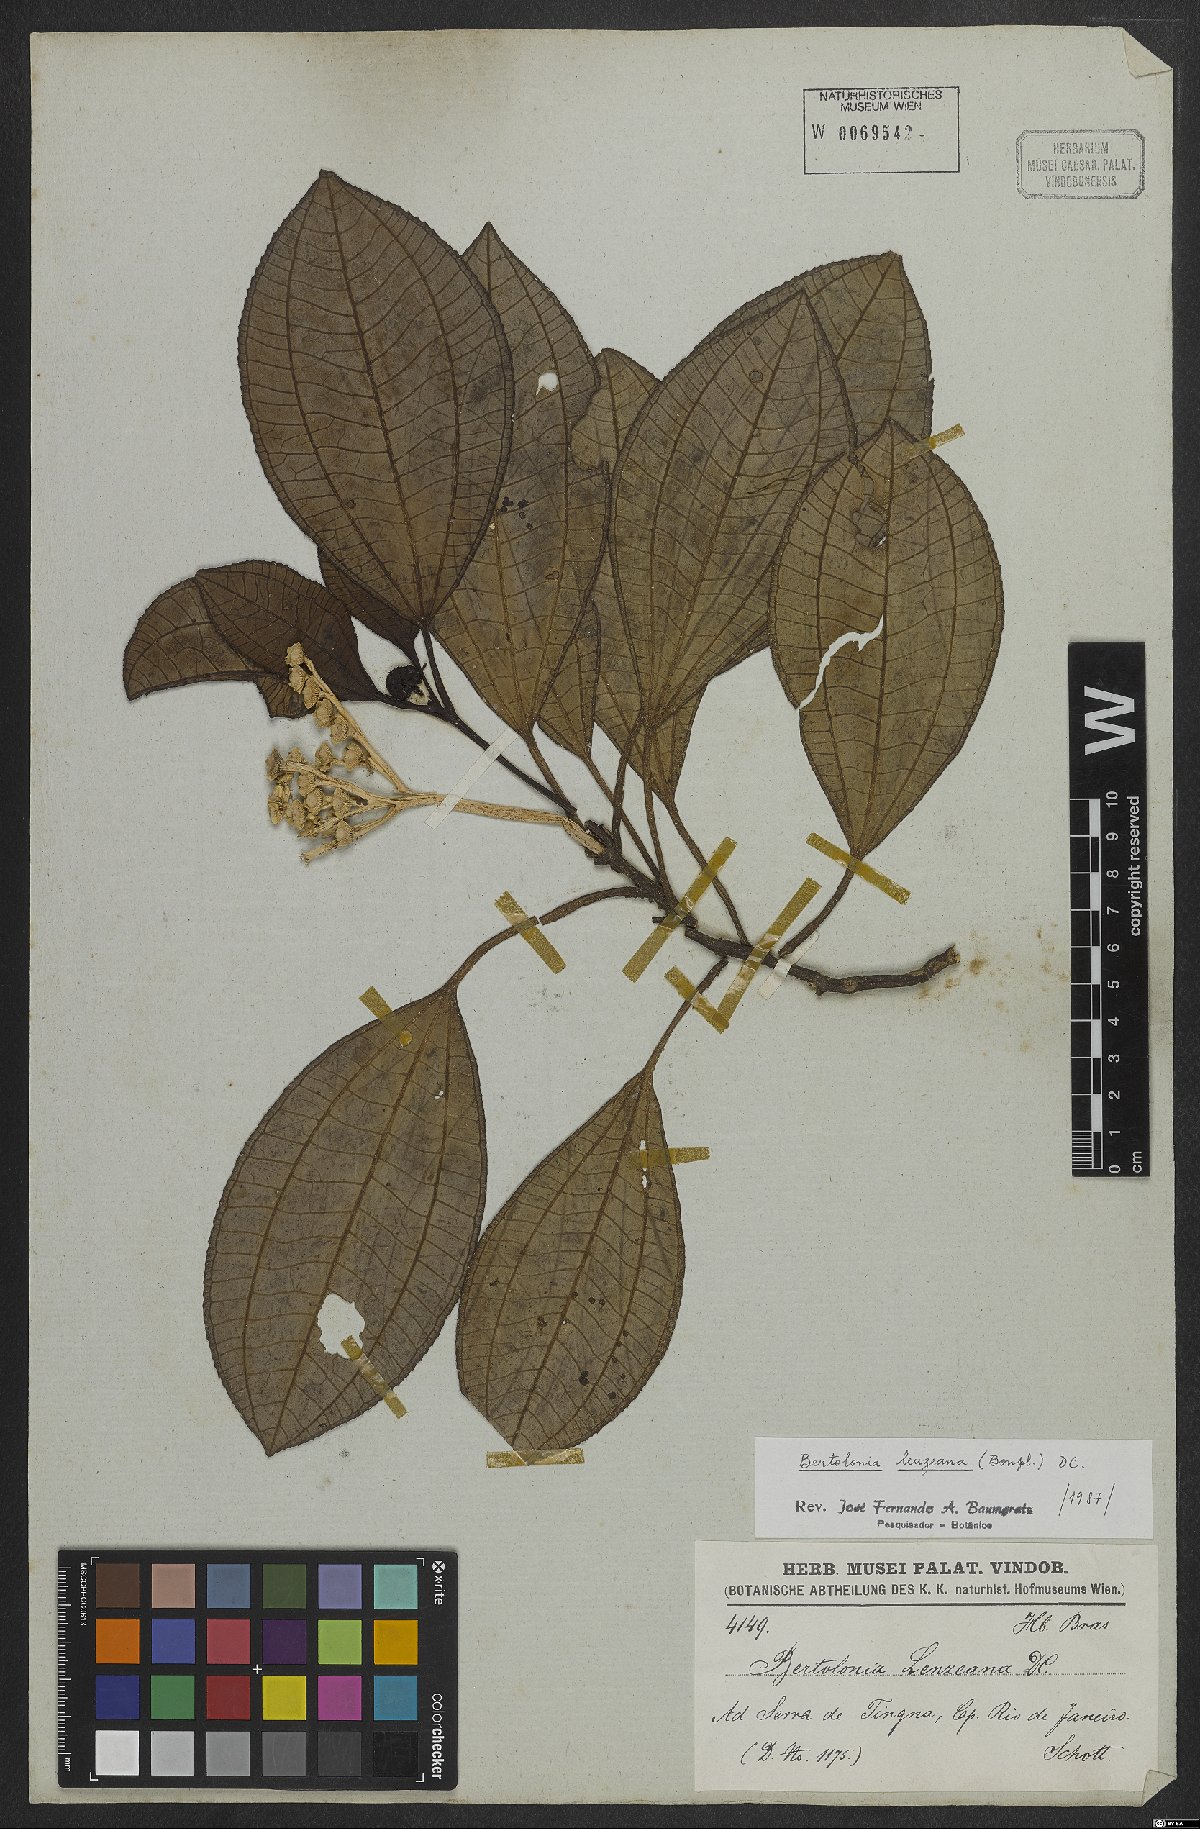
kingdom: Plantae
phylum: Tracheophyta
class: Magnoliopsida
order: Myrtales
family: Melastomataceae
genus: Bertolonia
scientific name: Bertolonia leuzeana
